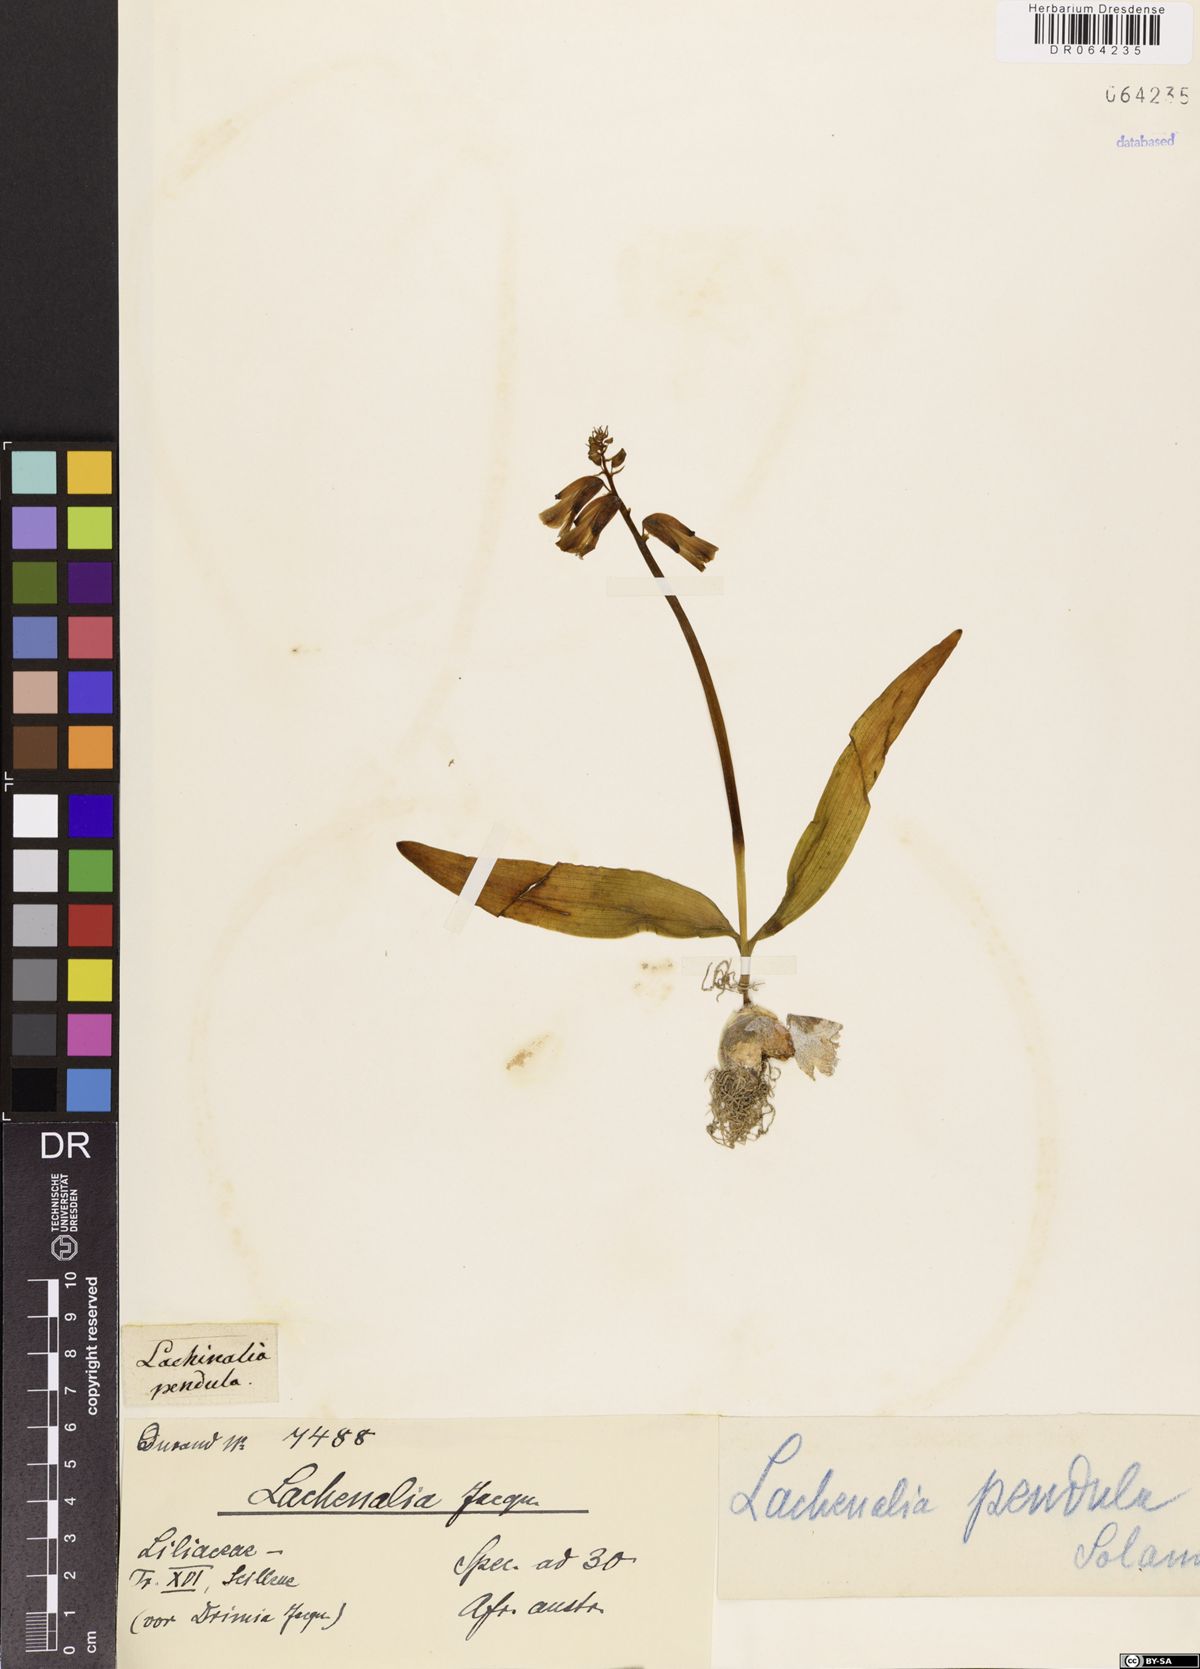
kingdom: Plantae
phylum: Tracheophyta
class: Liliopsida
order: Asparagales
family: Asparagaceae
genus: Lachenalia
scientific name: Lachenalia
